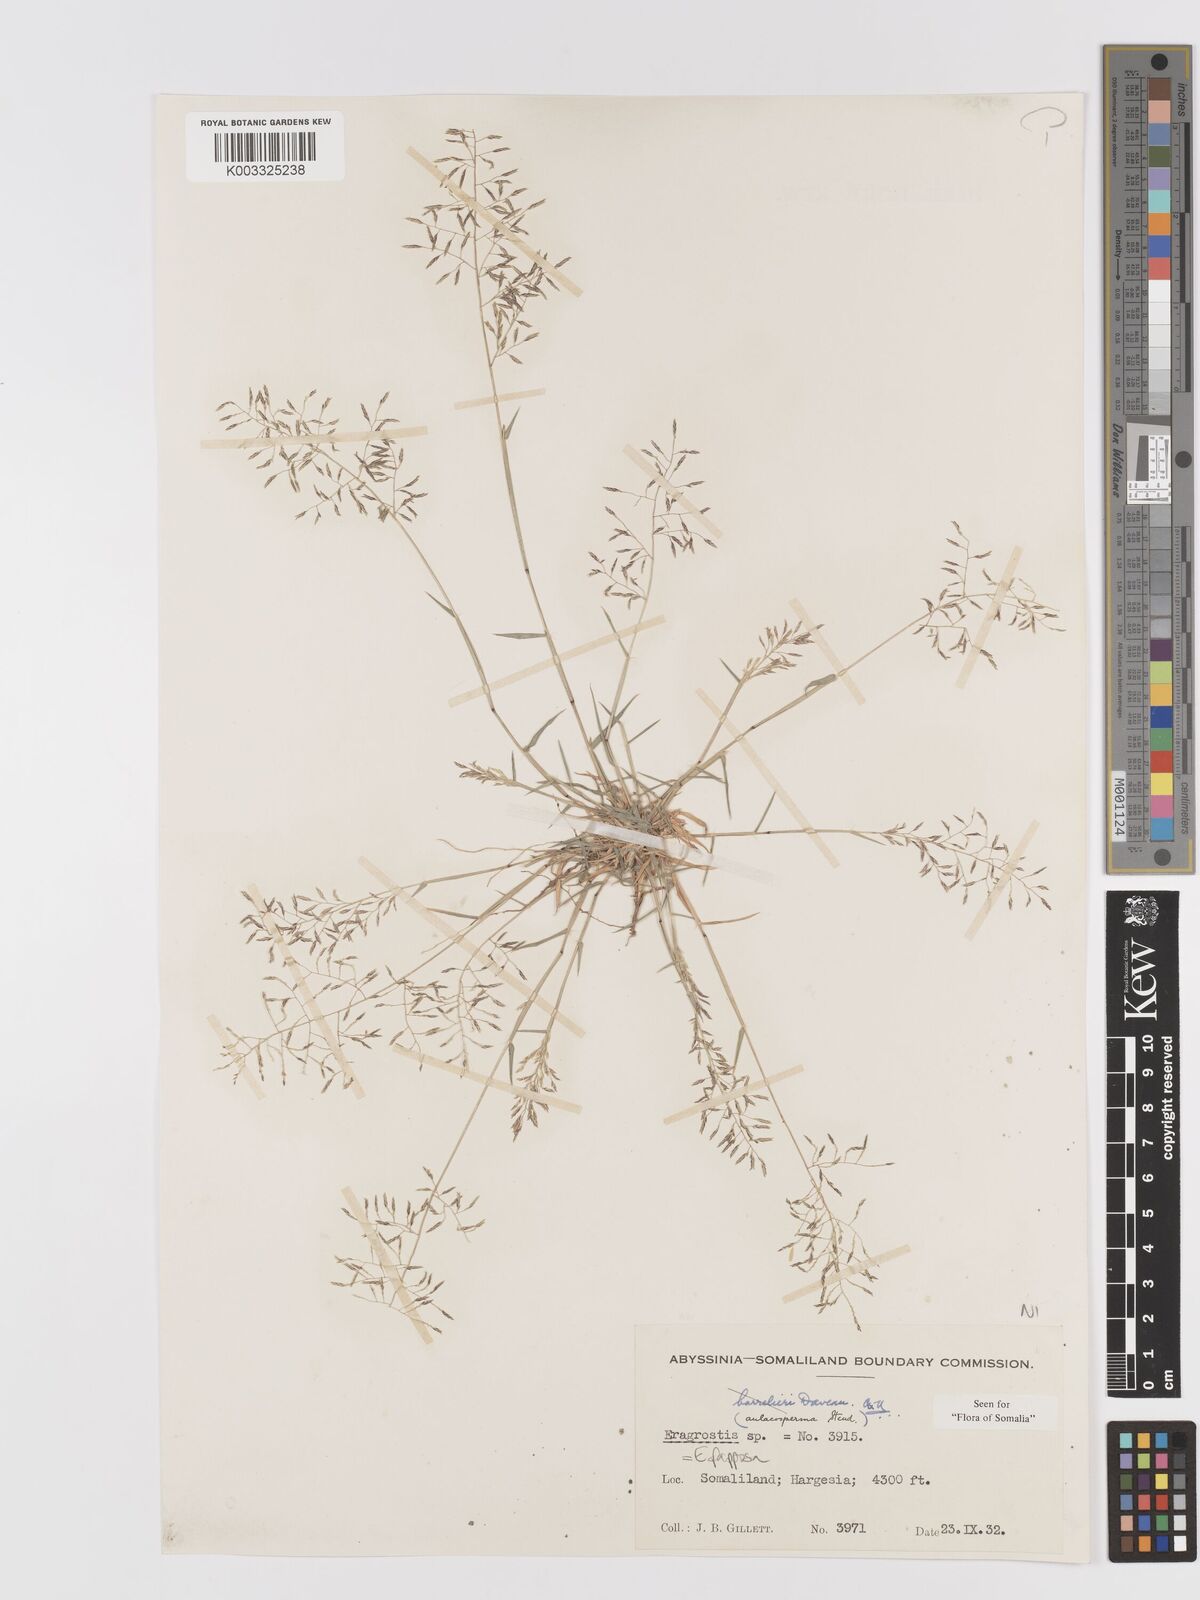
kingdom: Plantae
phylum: Tracheophyta
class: Liliopsida
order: Poales
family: Poaceae
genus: Eragrostis
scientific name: Eragrostis papposa
